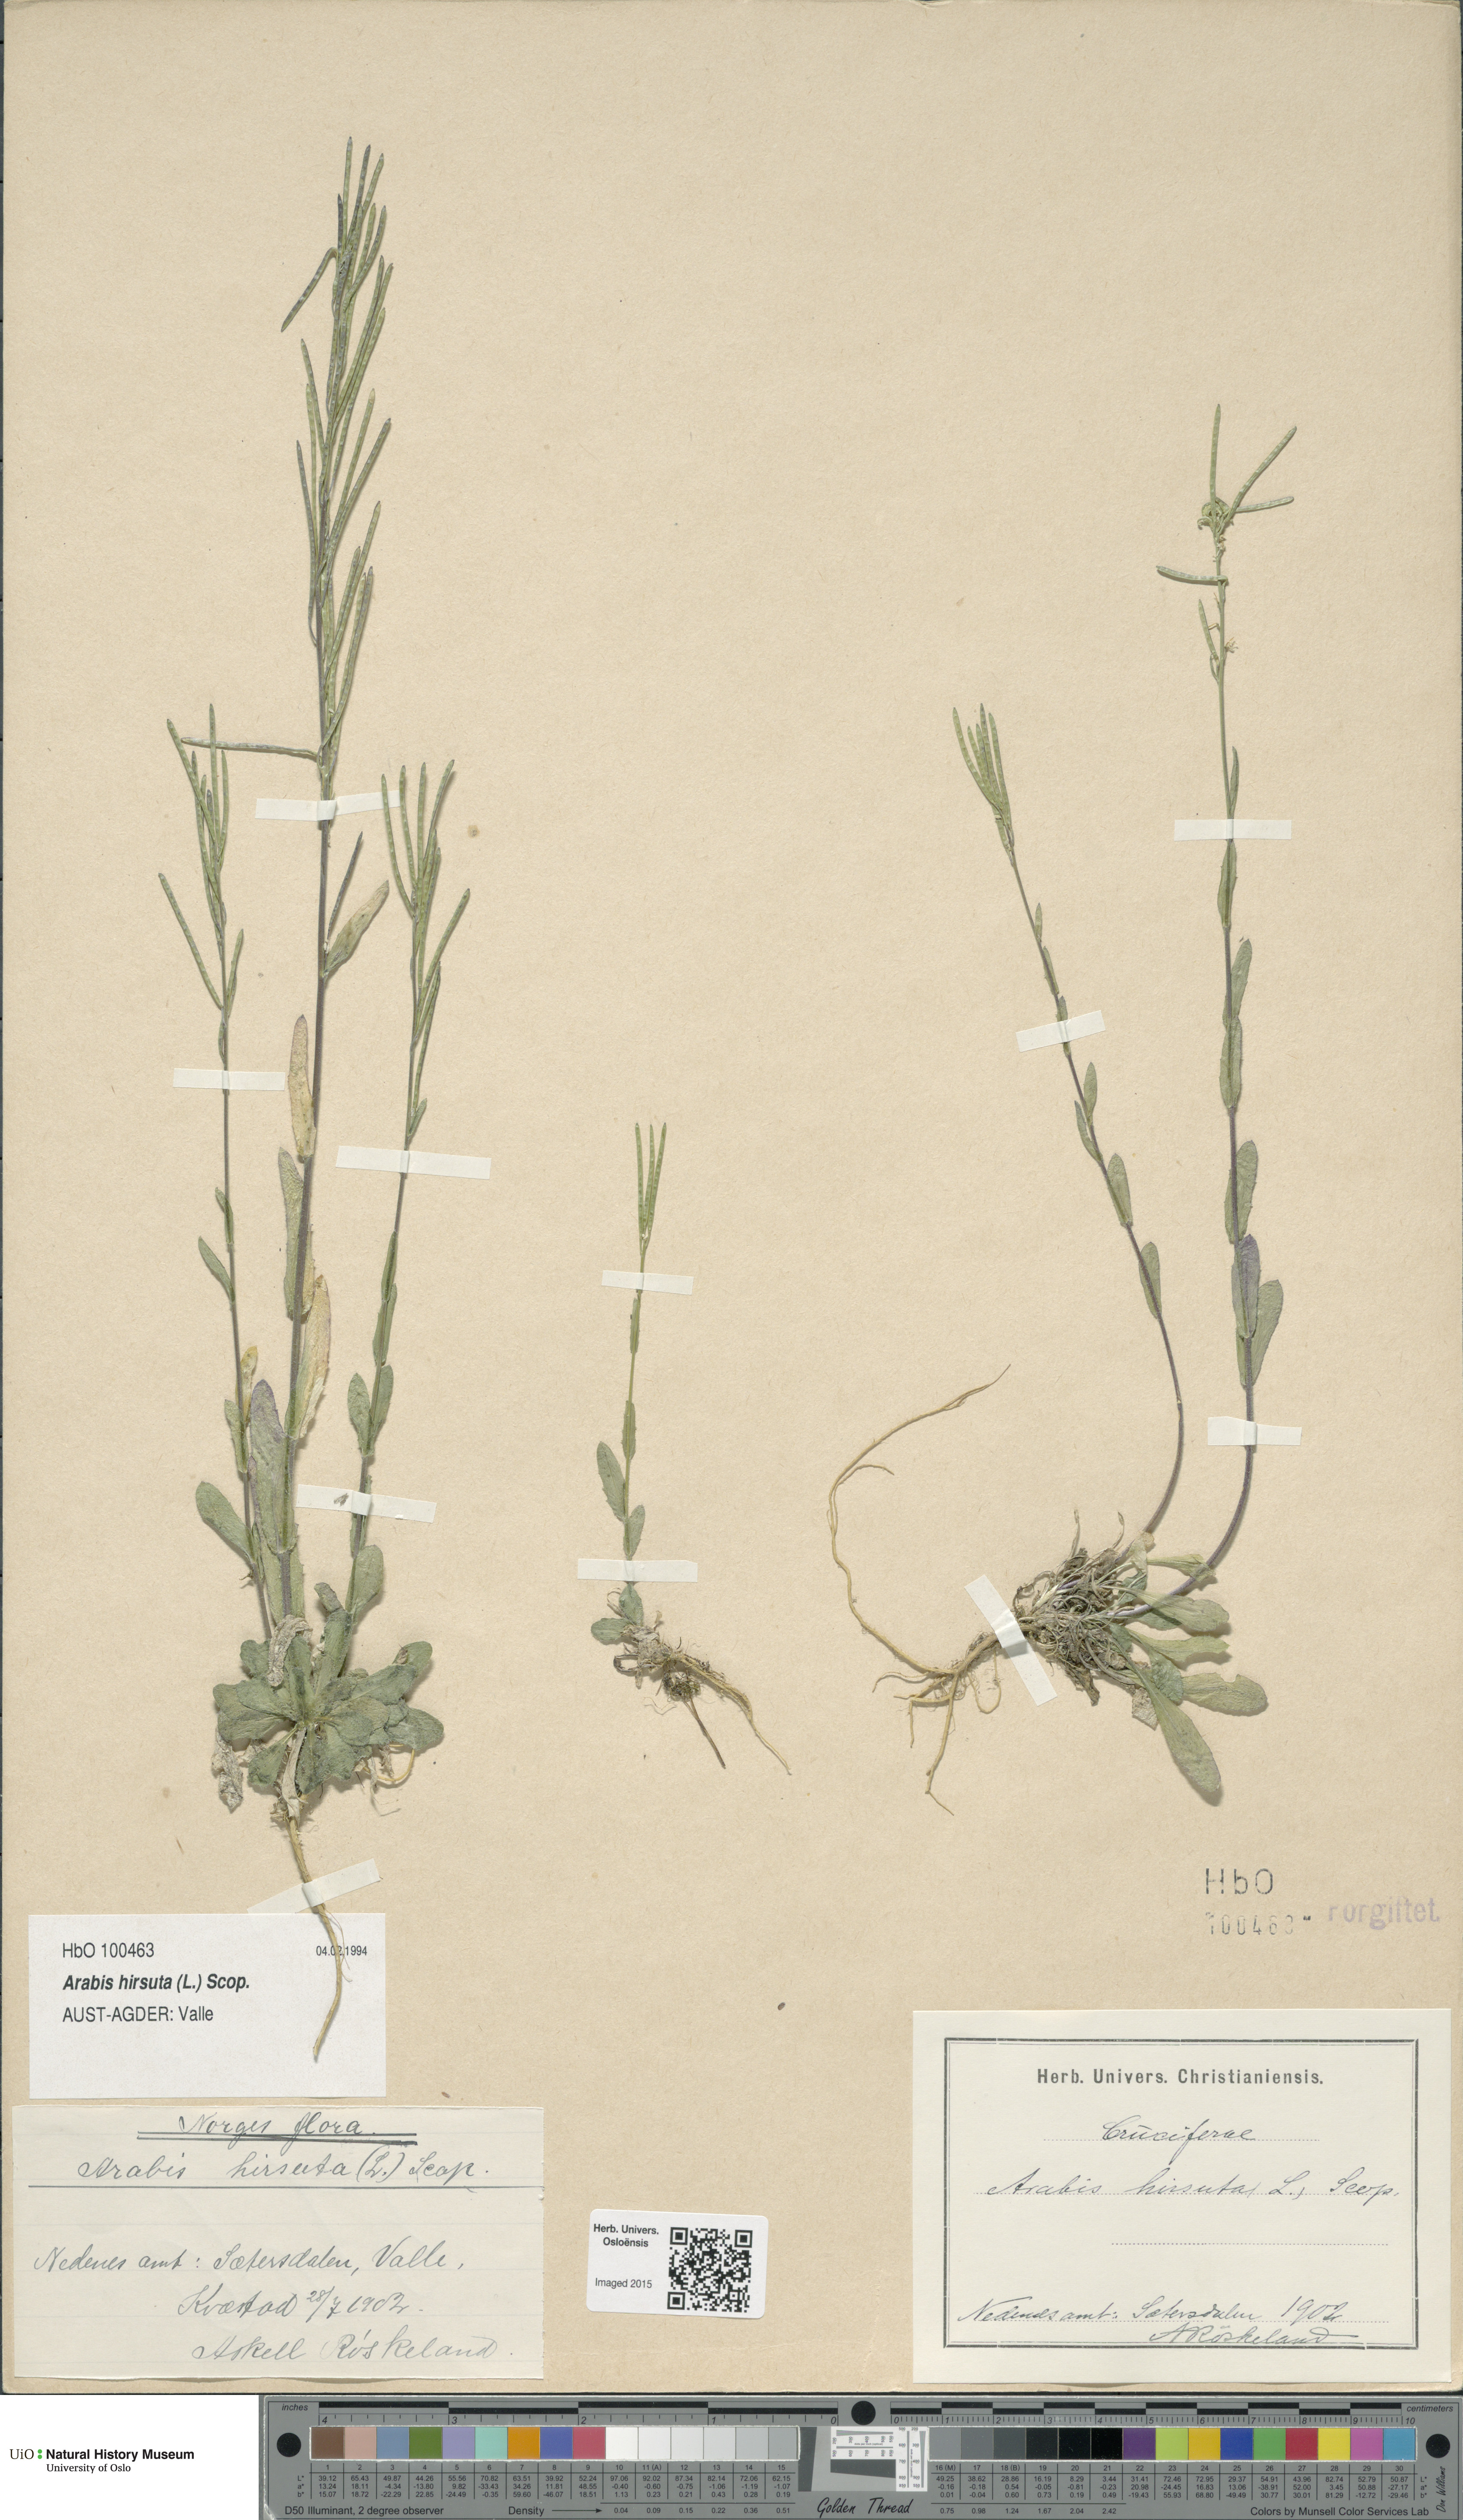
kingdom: Plantae
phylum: Tracheophyta
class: Magnoliopsida
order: Brassicales
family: Brassicaceae
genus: Arabis
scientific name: Arabis hirsuta
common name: Hairy rock-cress
